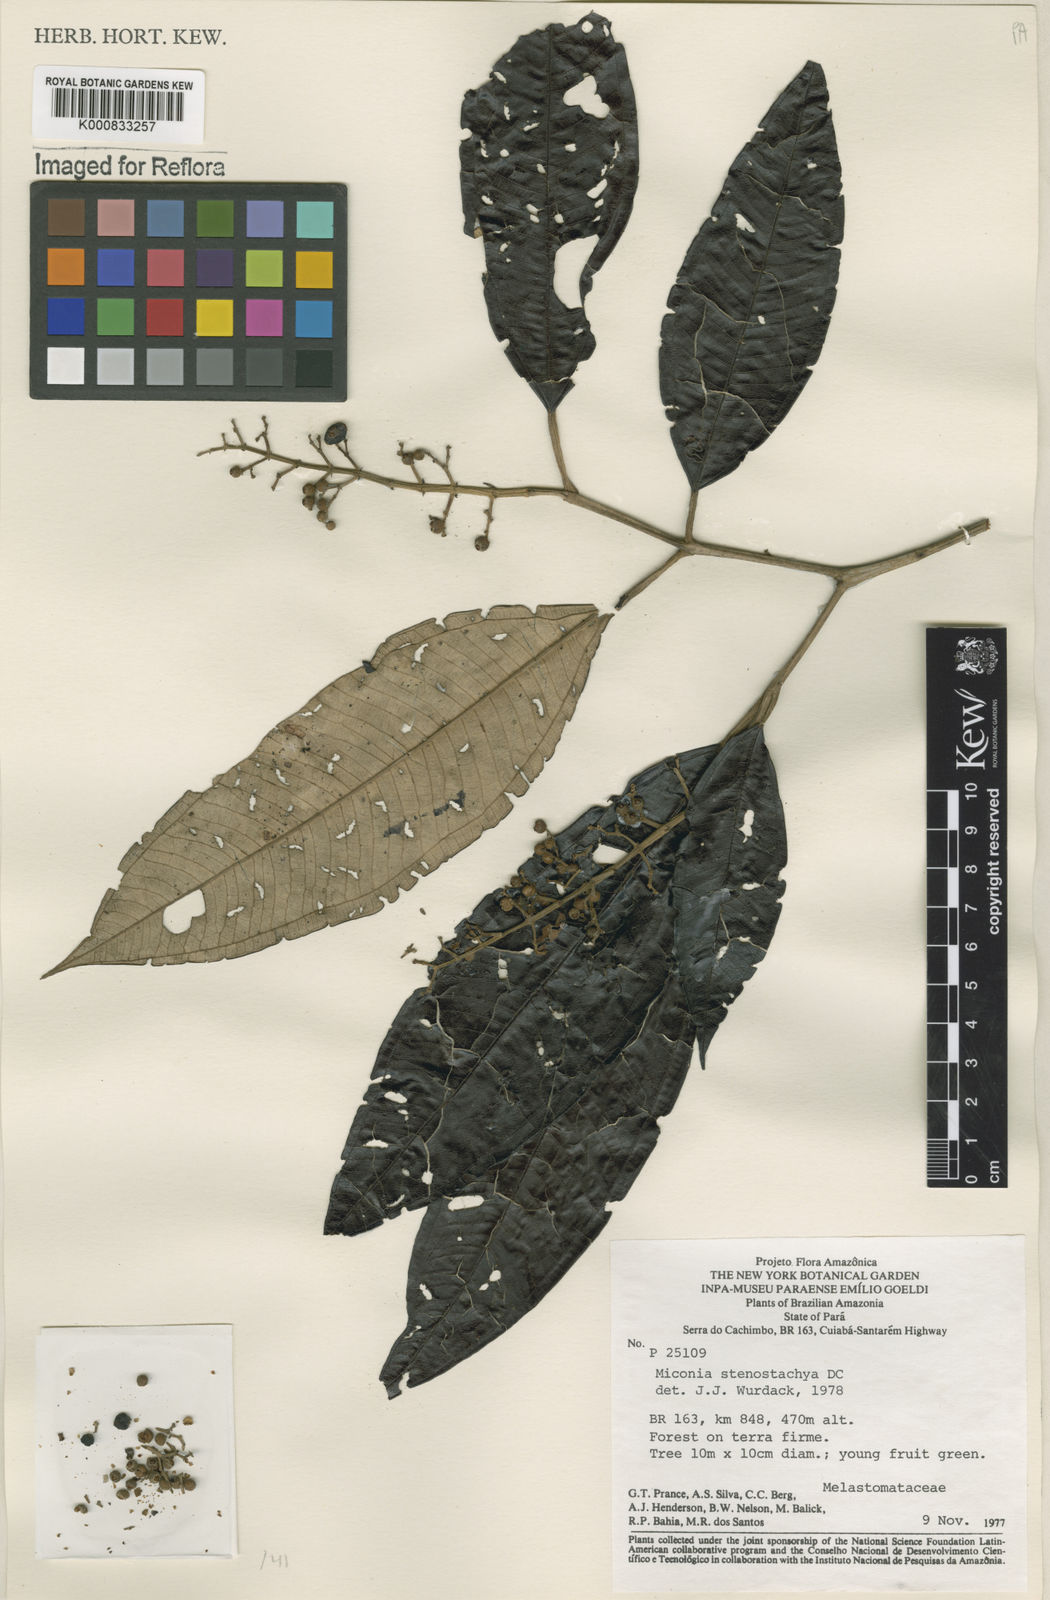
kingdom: Plantae
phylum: Tracheophyta
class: Magnoliopsida
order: Myrtales
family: Melastomataceae
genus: Miconia
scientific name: Miconia stenostachya
